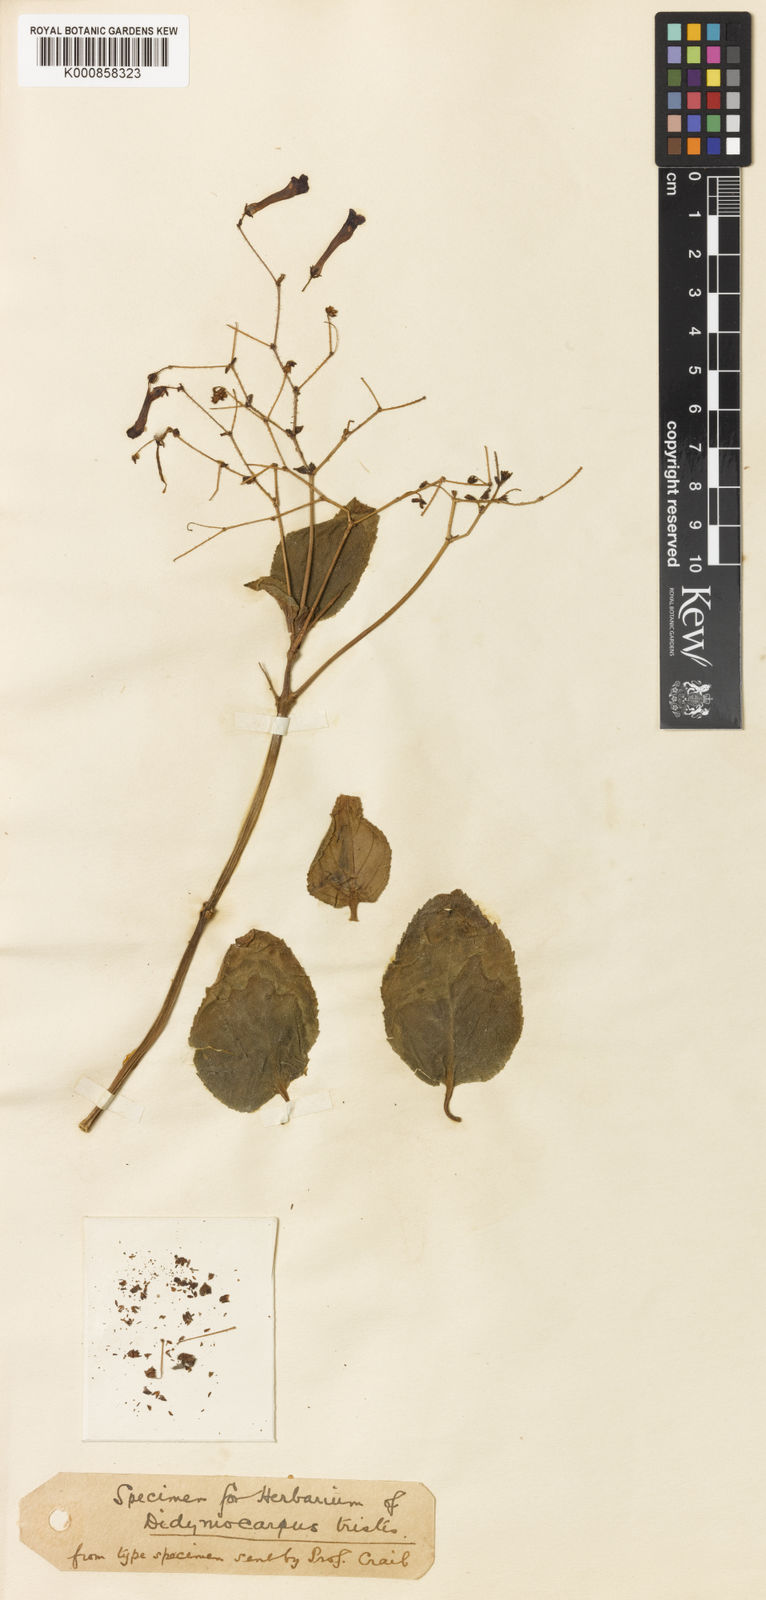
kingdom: Plantae
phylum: Tracheophyta
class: Magnoliopsida
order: Lamiales
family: Gesneriaceae
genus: Didymocarpus
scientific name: Didymocarpus tristis
